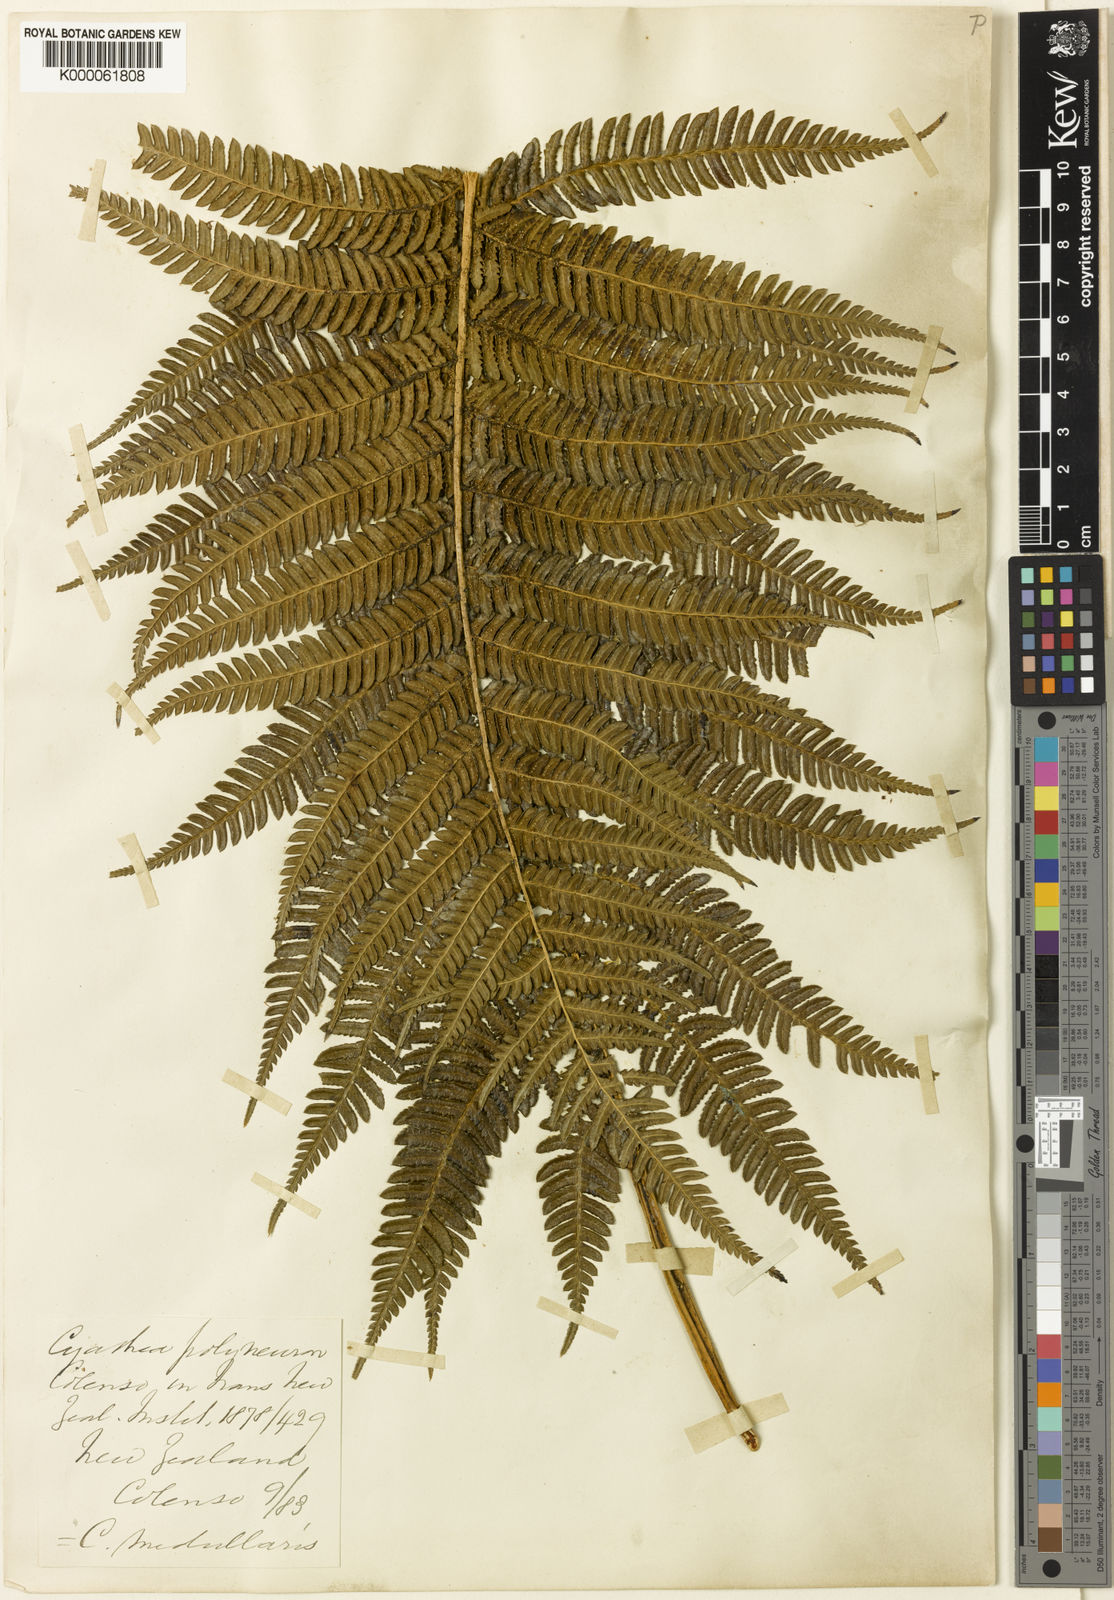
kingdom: Plantae
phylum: Tracheophyta
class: Polypodiopsida
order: Cyatheales
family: Cyatheaceae
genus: Sphaeropteris
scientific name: Sphaeropteris medullaris
